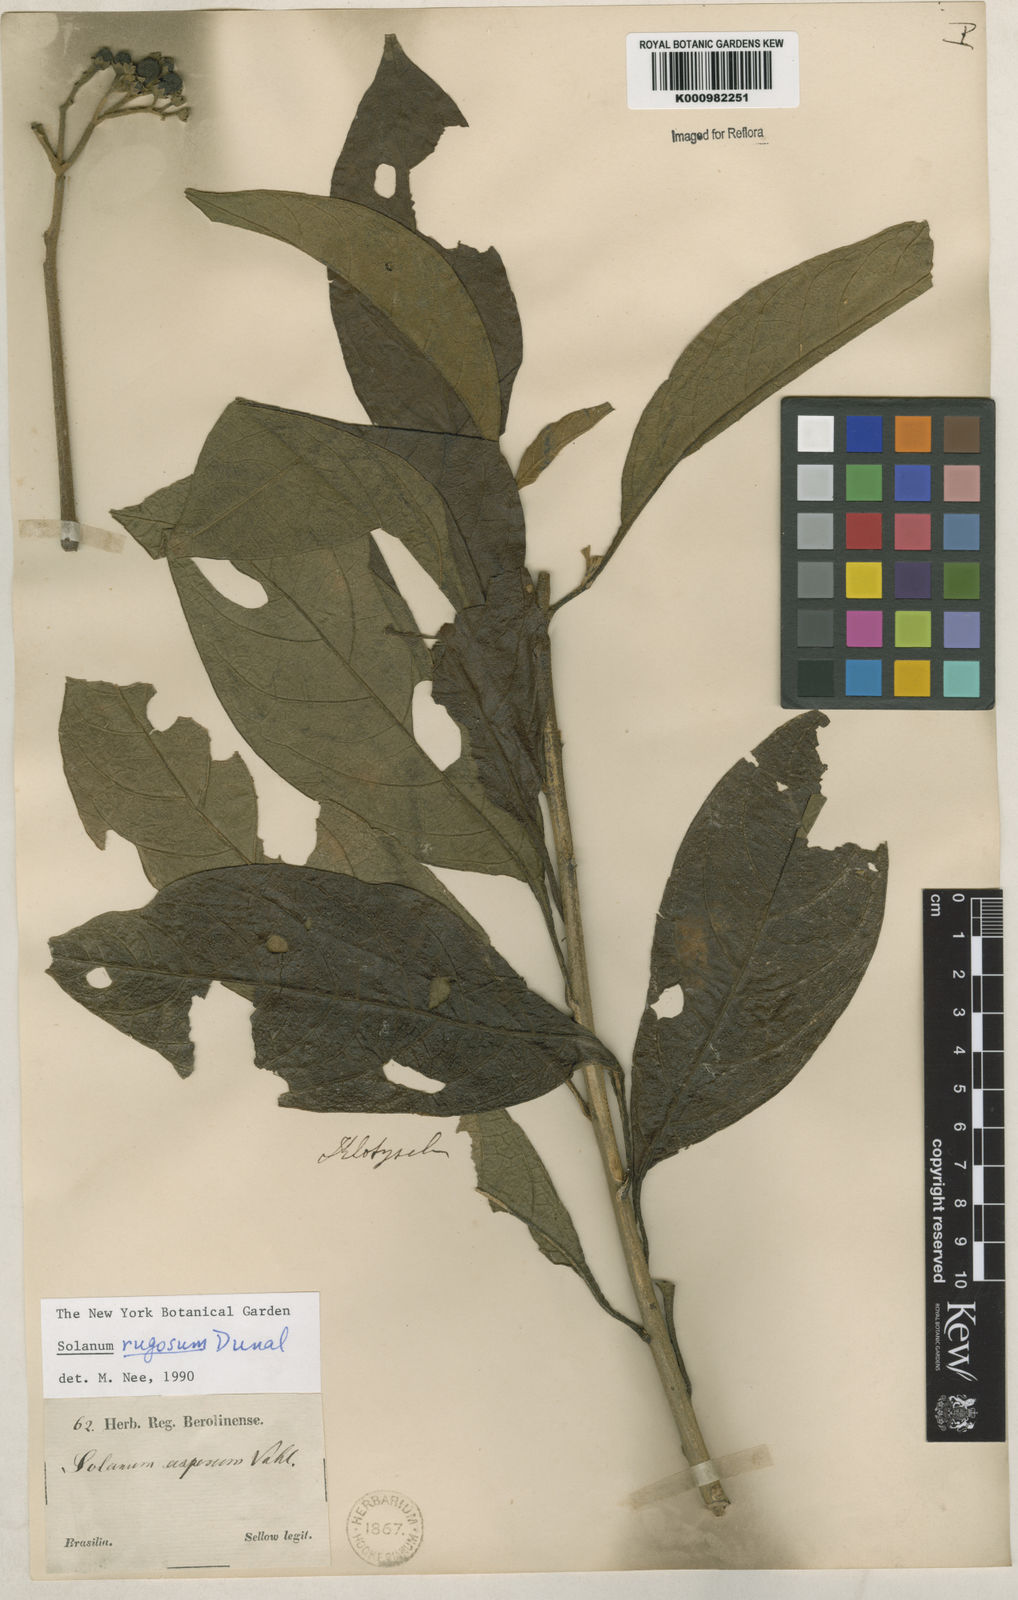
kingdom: Plantae
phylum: Tracheophyta
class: Magnoliopsida
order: Solanales
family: Solanaceae
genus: Solanum
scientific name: Solanum rugosum
